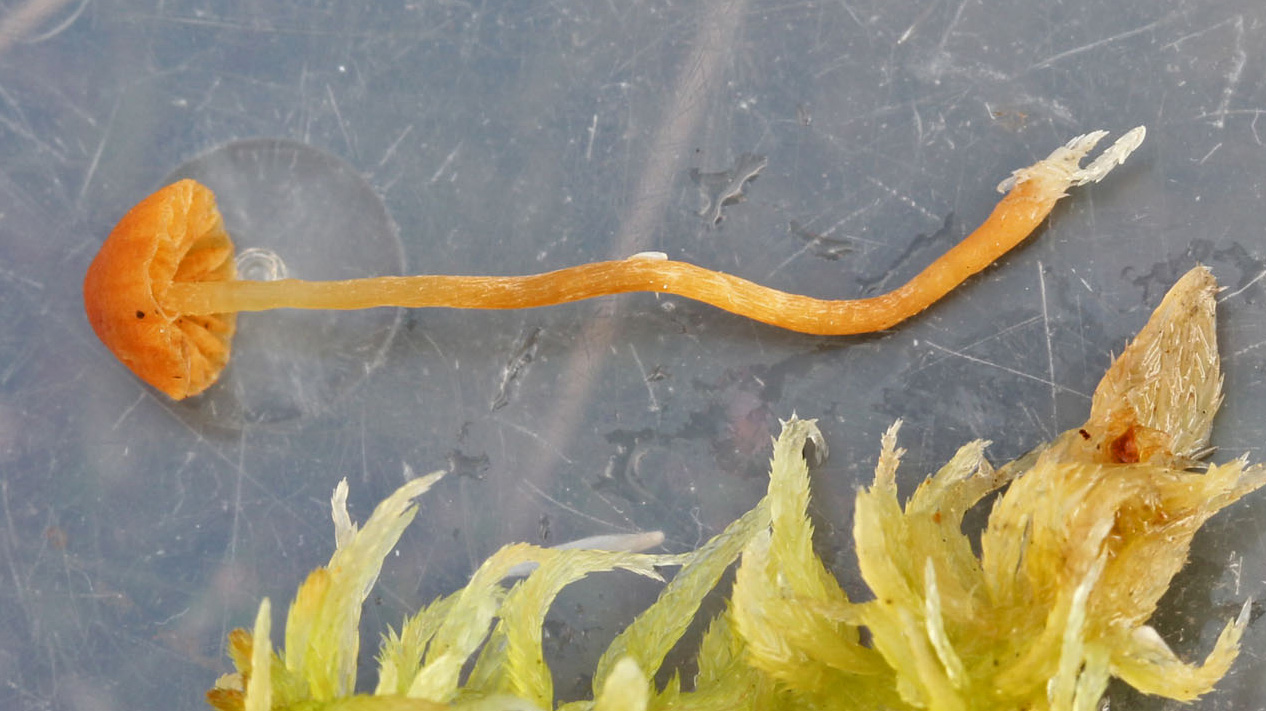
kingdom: Fungi
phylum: Basidiomycota
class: Agaricomycetes
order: Agaricales
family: Hymenogastraceae
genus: Galerina
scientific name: Galerina sphagnicola
